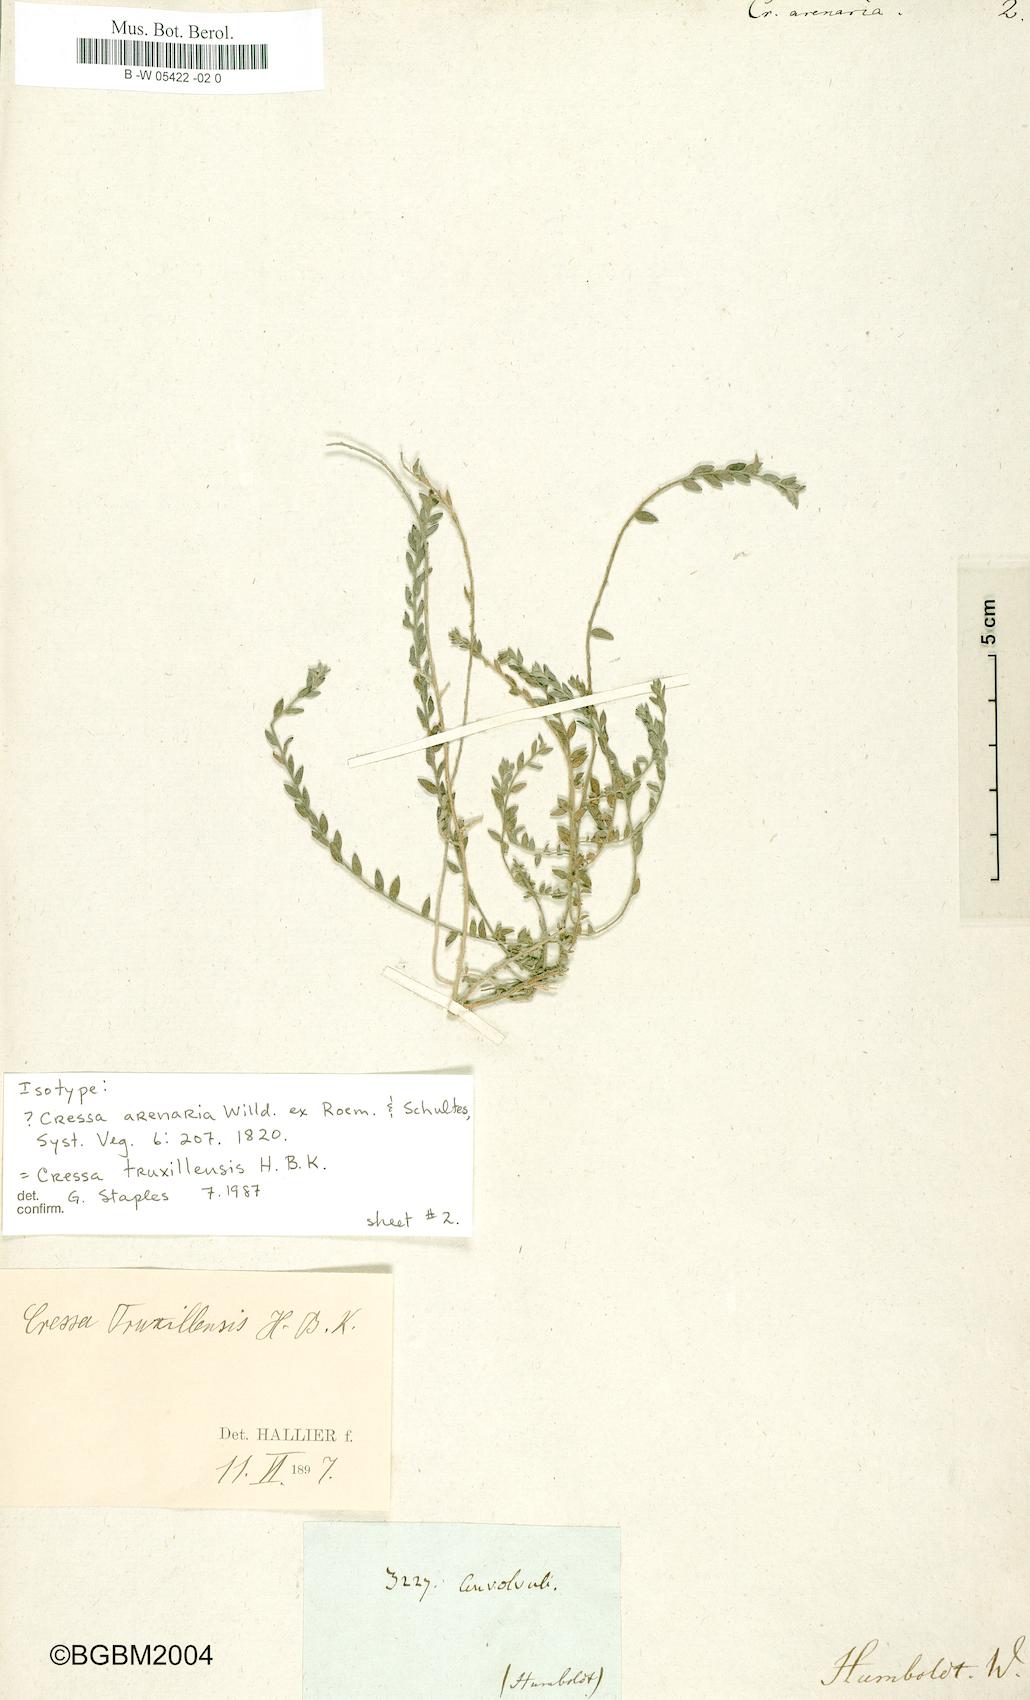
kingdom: Plantae
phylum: Tracheophyta
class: Magnoliopsida
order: Solanales
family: Convolvulaceae
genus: Cressa
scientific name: Cressa truxillensis
